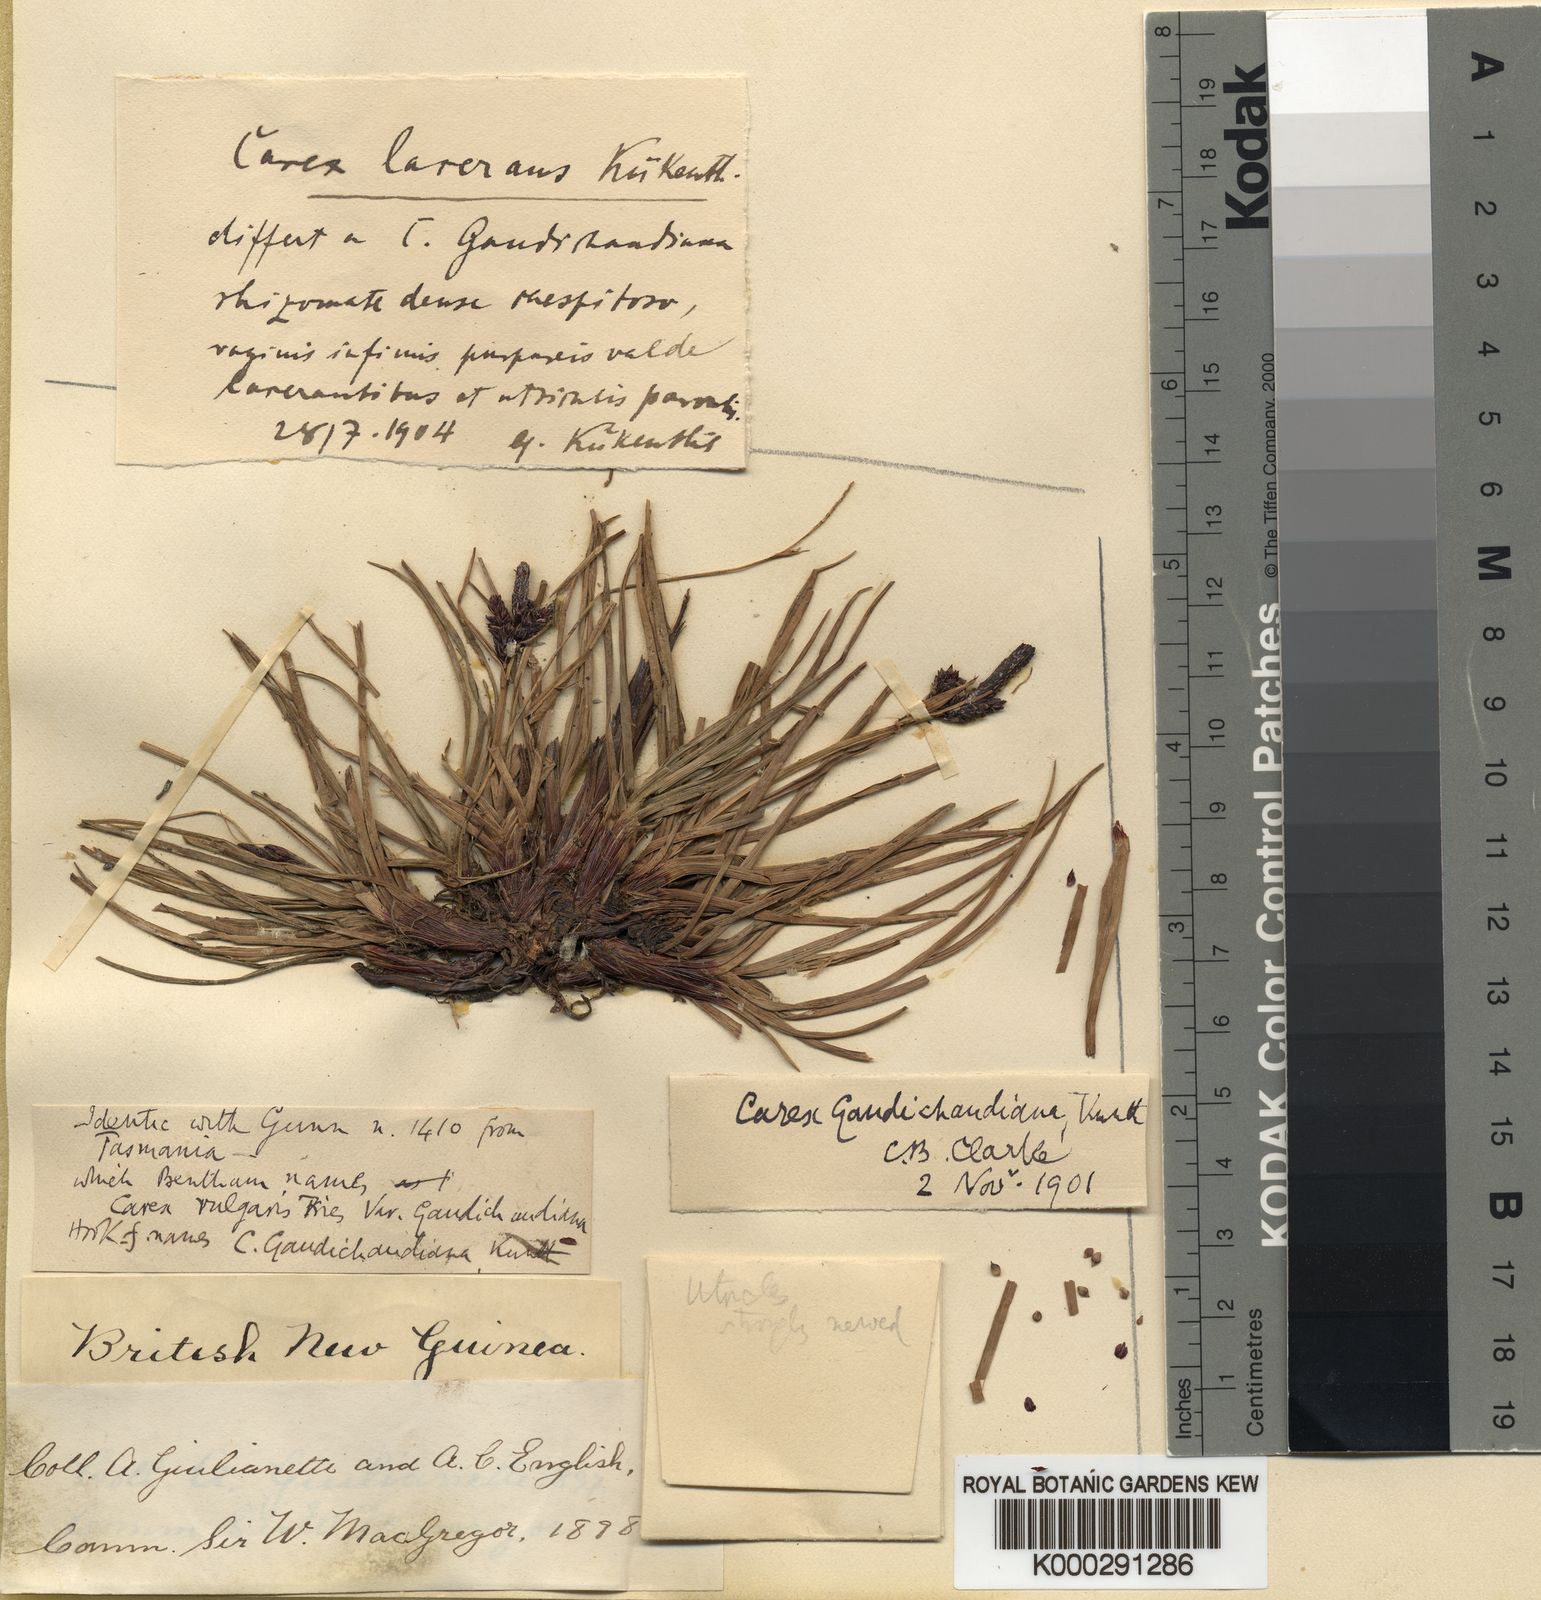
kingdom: Plantae
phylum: Tracheophyta
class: Liliopsida
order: Poales
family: Cyperaceae
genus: Carex
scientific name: Carex gaudichaudiana
